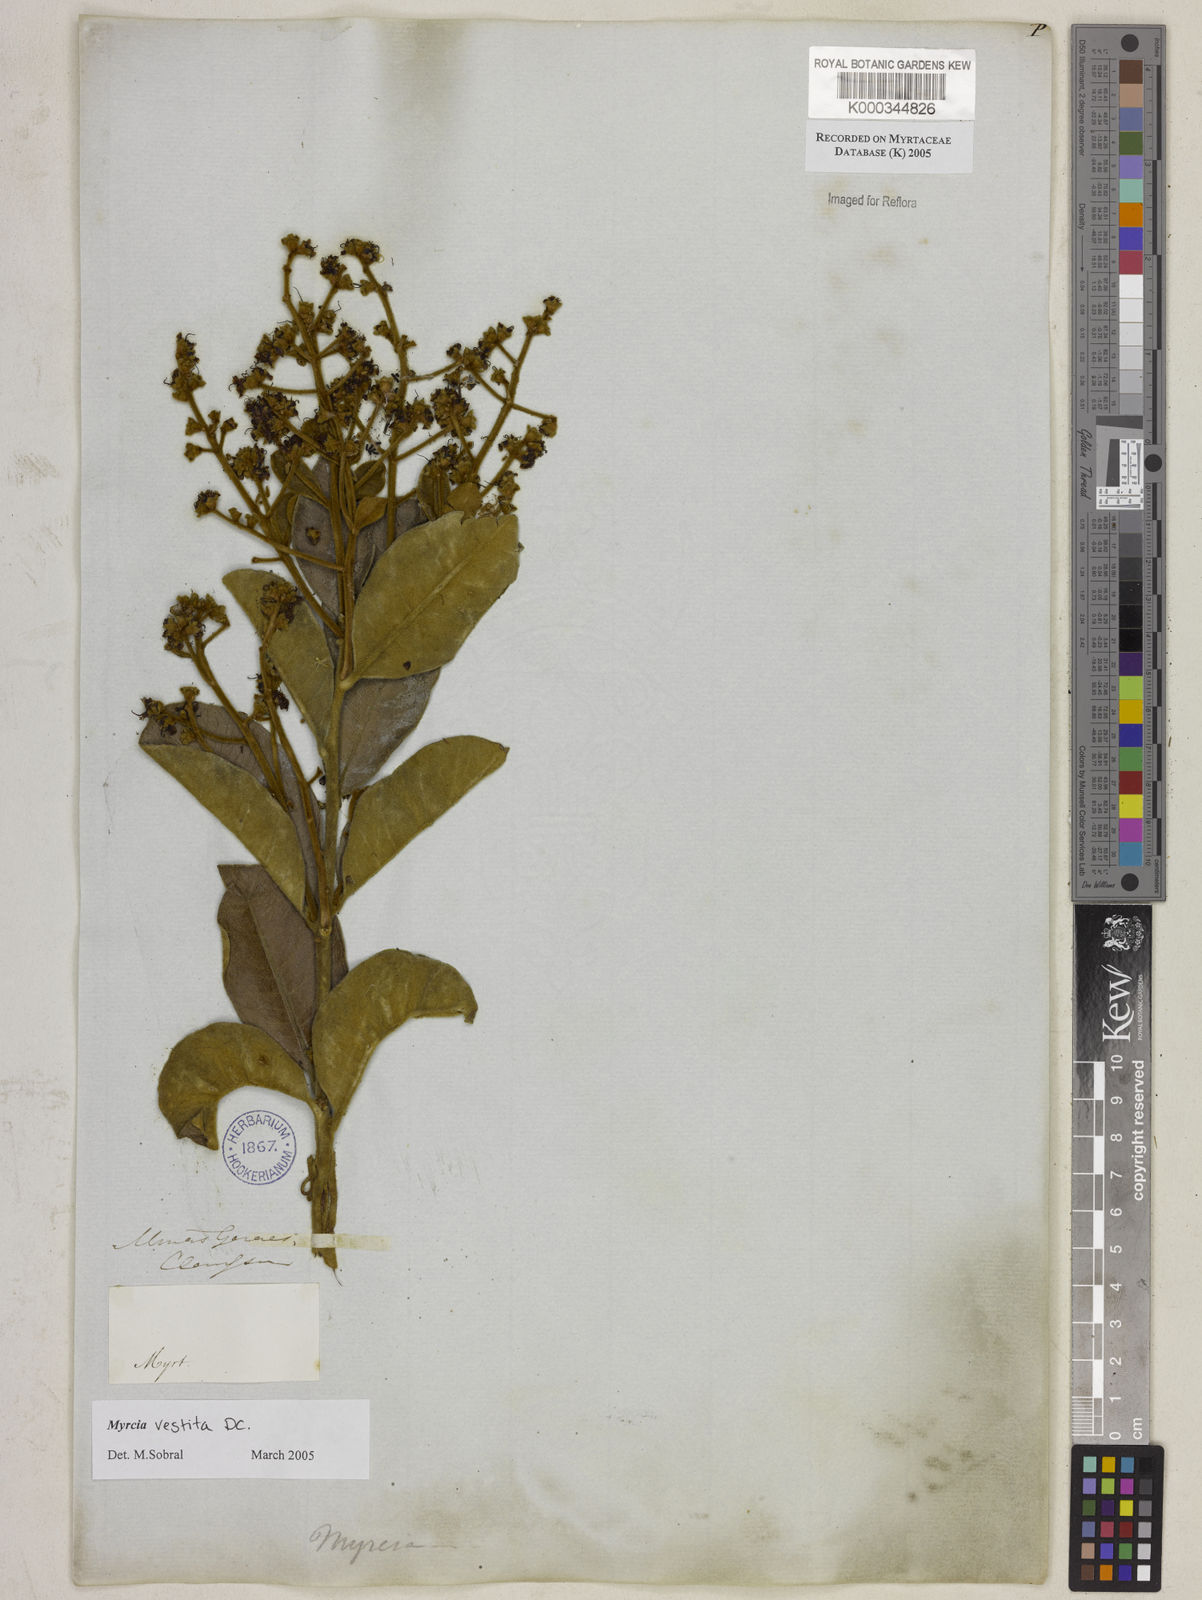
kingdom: Plantae
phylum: Tracheophyta
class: Magnoliopsida
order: Myrtales
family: Myrtaceae
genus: Myrcia
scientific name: Myrcia vestita
